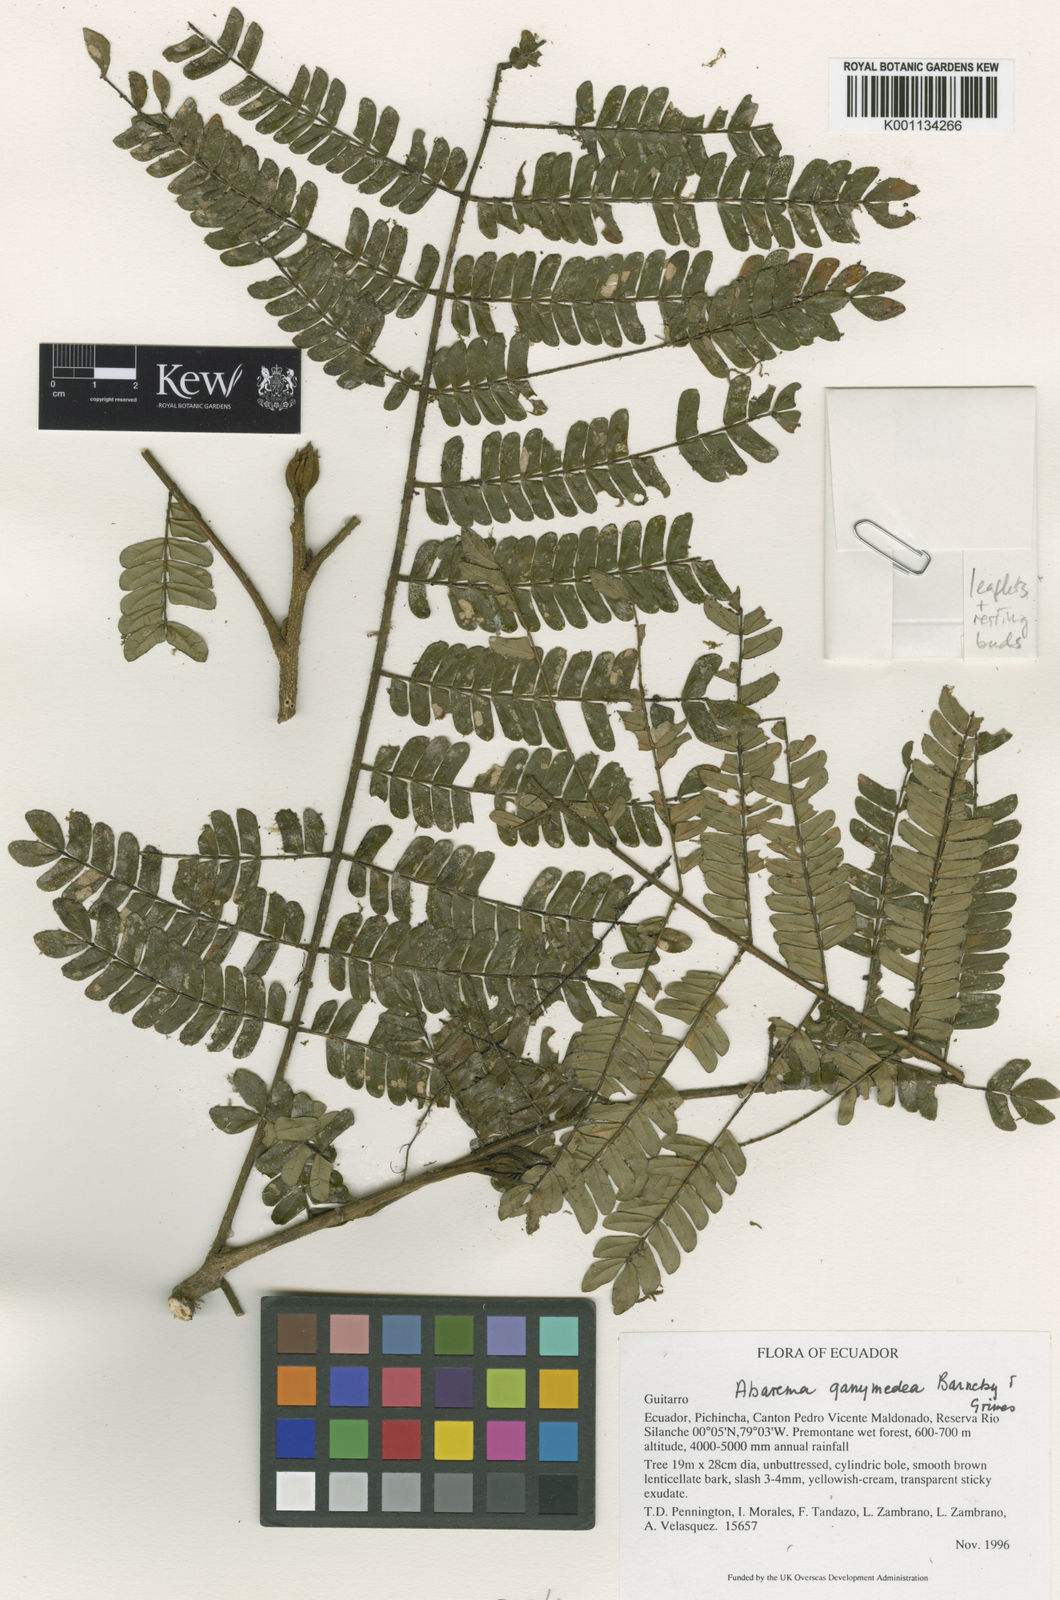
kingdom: Plantae
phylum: Tracheophyta
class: Magnoliopsida
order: Fabales
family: Fabaceae
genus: Jupunba
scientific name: Jupunba ganymedea
